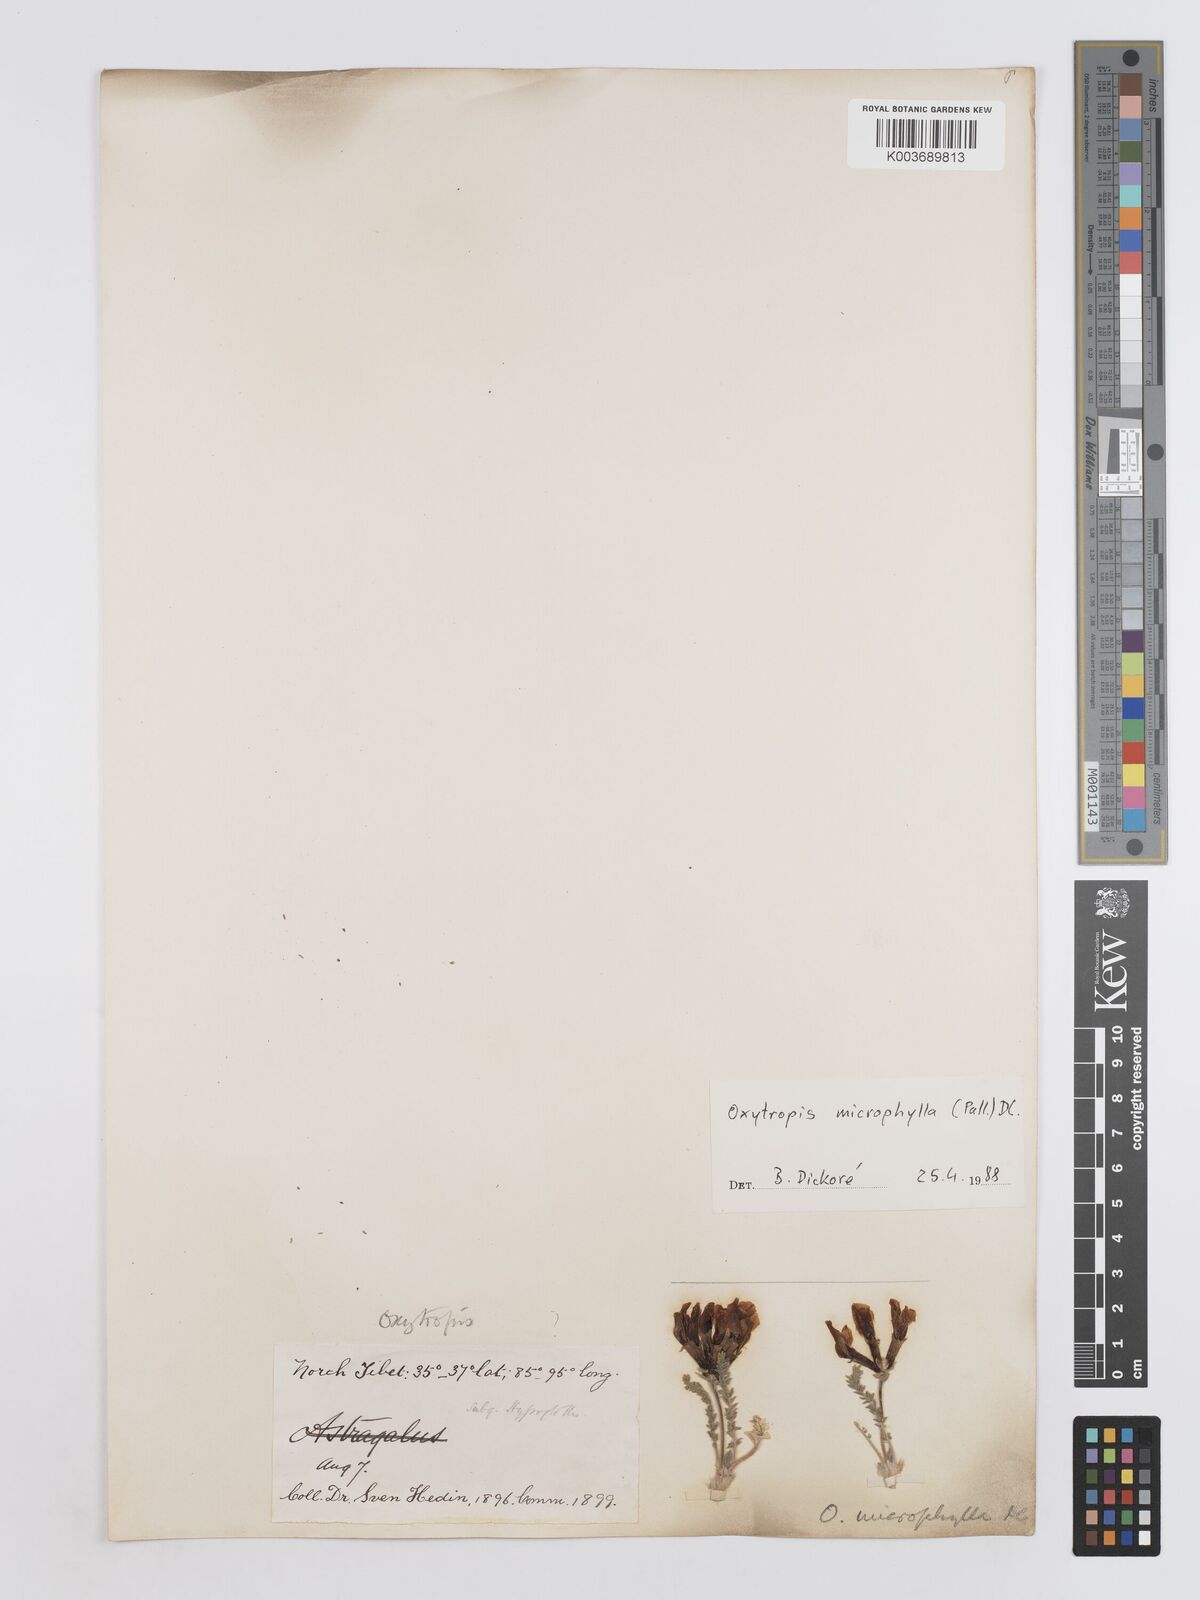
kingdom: Plantae
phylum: Tracheophyta
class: Magnoliopsida
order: Fabales
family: Fabaceae
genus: Oxytropis
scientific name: Oxytropis microphylla
